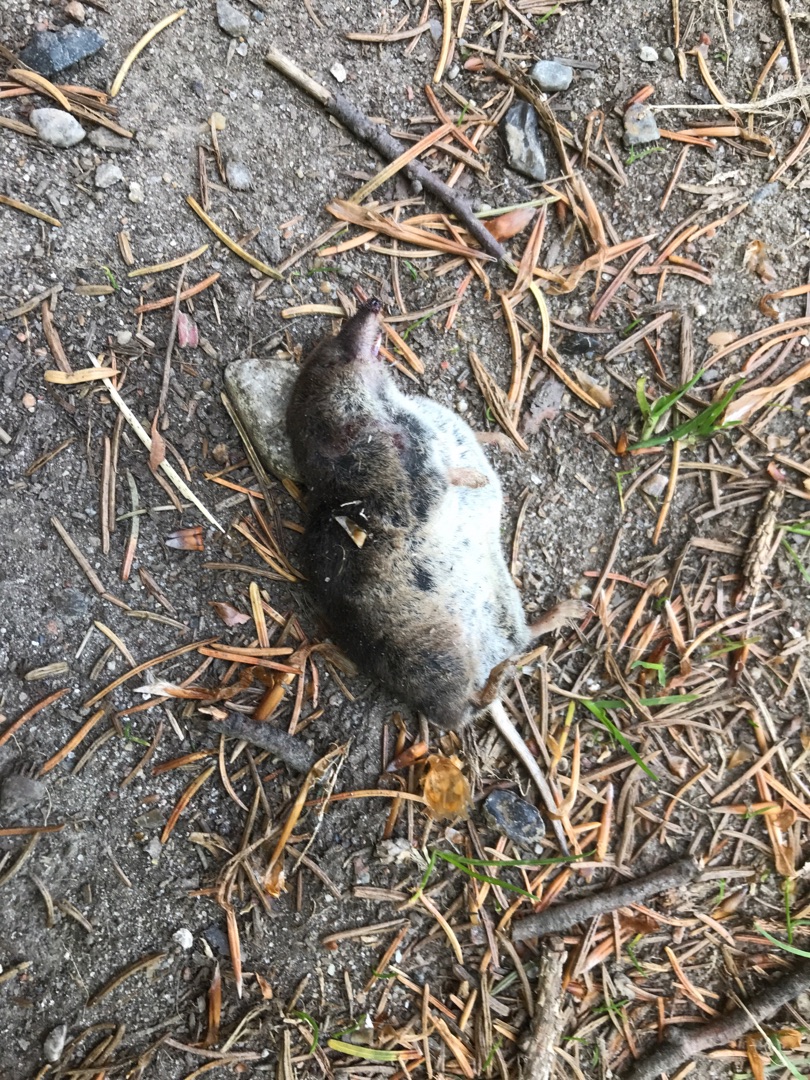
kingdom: Animalia
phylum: Chordata
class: Mammalia
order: Soricomorpha
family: Soricidae
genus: Sorex
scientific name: Sorex araneus
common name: Almindelig spidsmus
